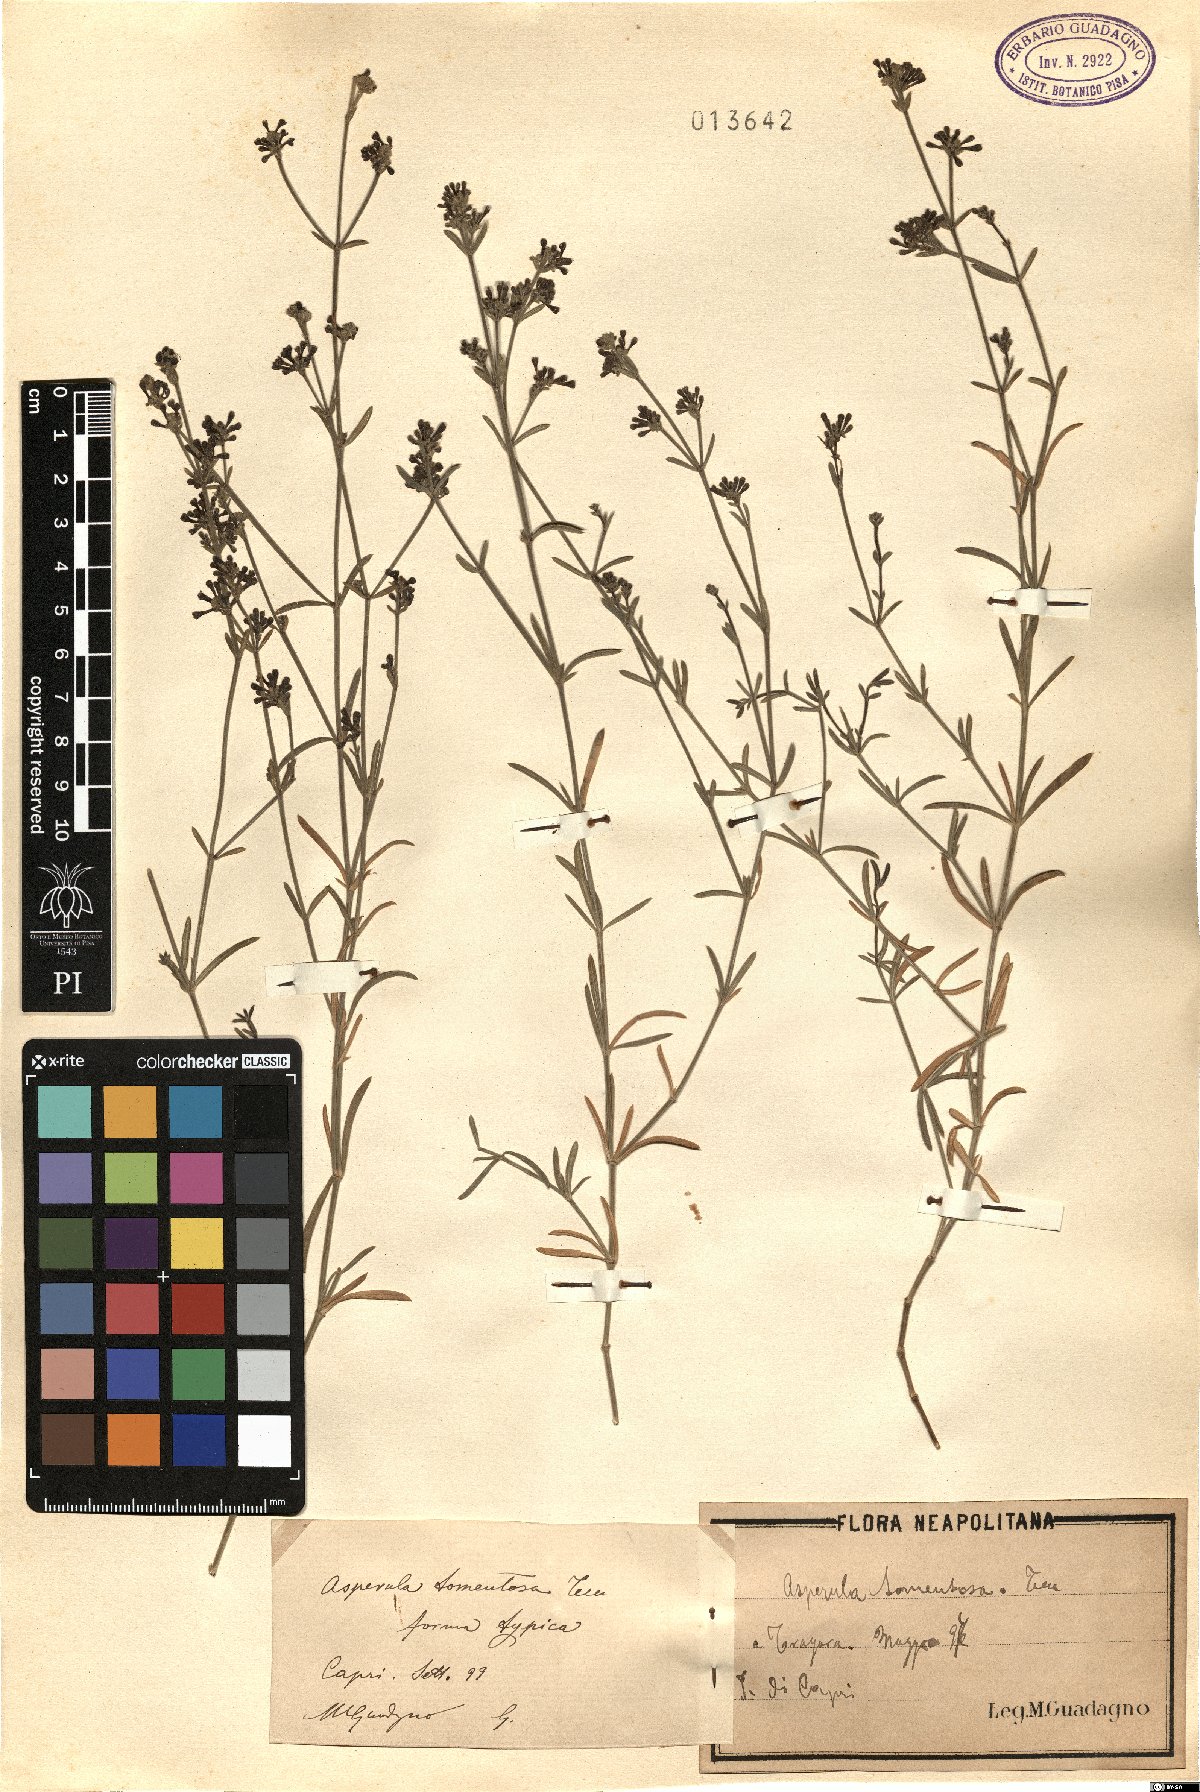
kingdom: Plantae
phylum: Tracheophyta
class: Magnoliopsida
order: Gentianales
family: Rubiaceae
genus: Cynanchica
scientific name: Cynanchica crassifolia
